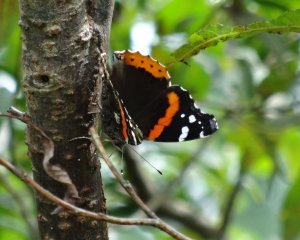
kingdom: Animalia
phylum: Arthropoda
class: Insecta
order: Lepidoptera
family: Nymphalidae
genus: Vanessa
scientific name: Vanessa atalanta
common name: Red Admiral
